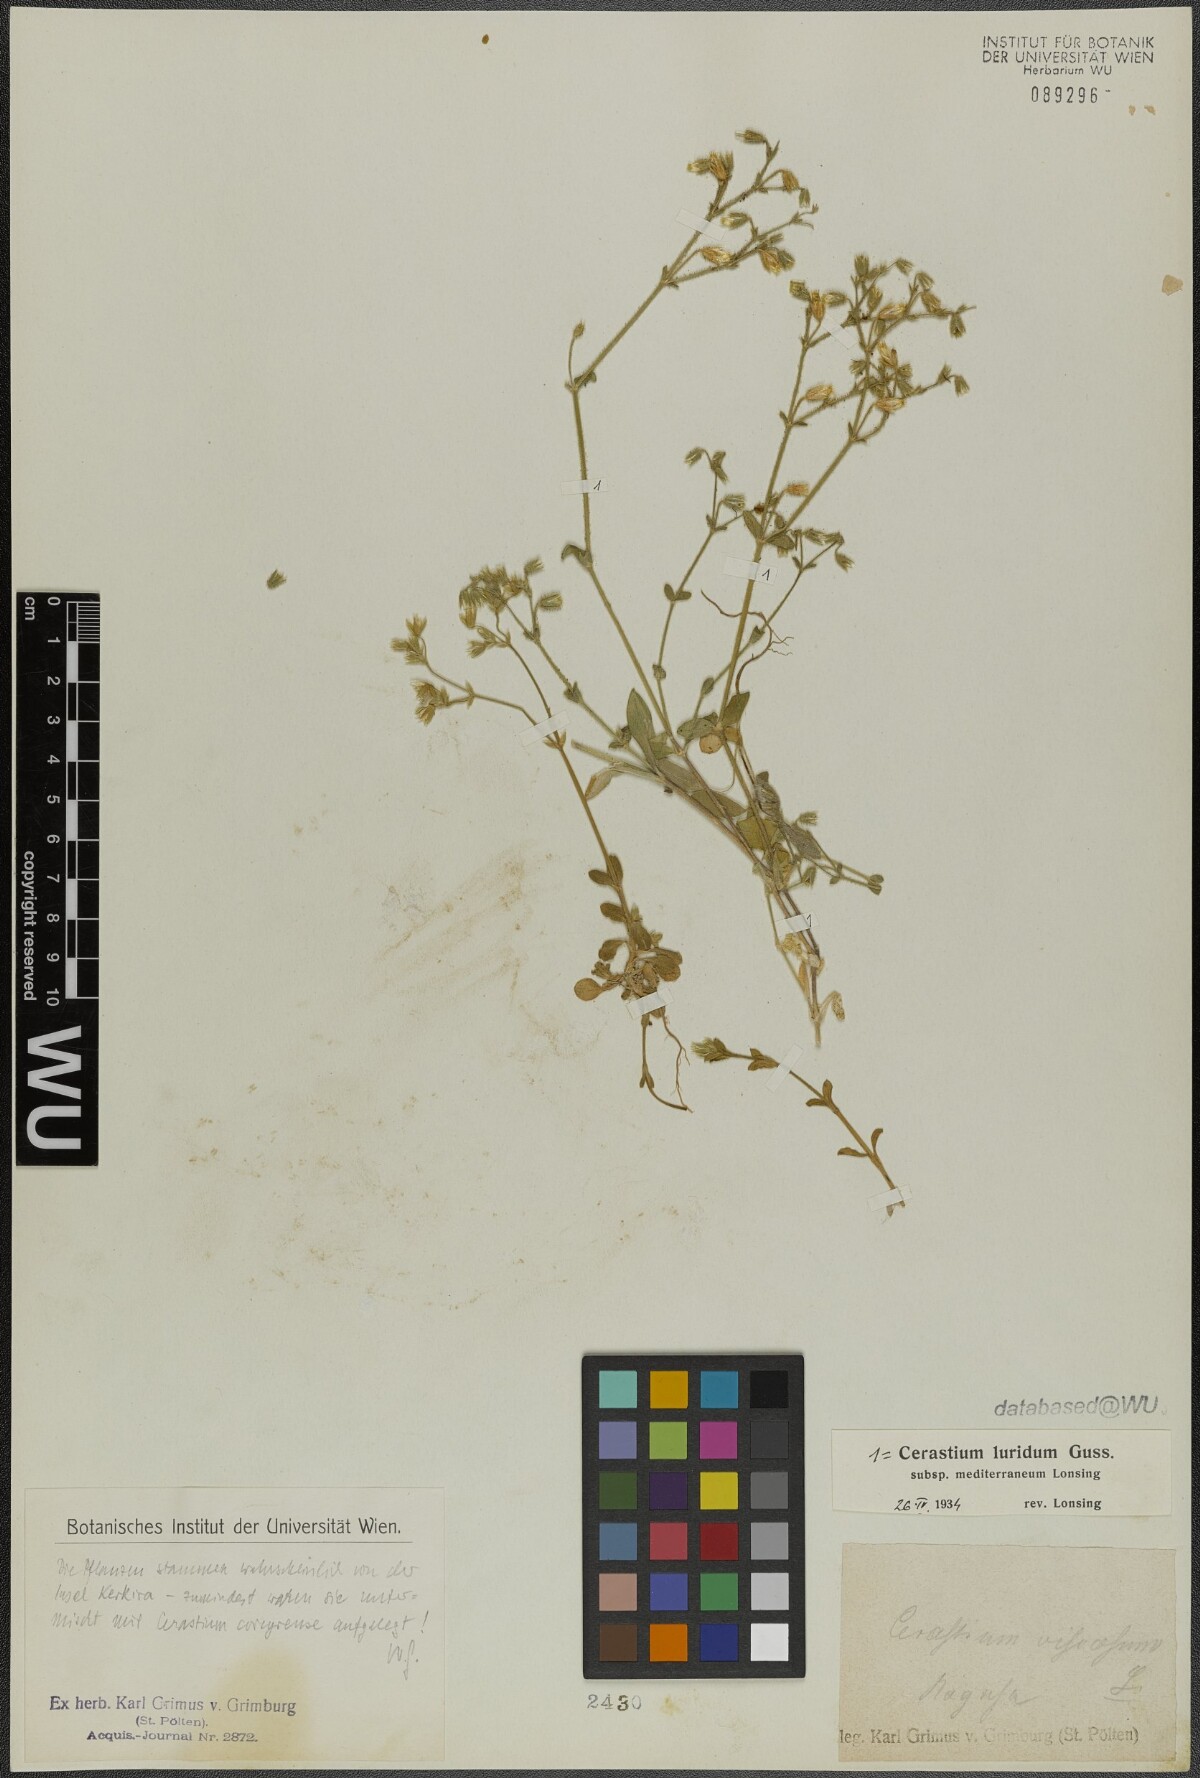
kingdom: Plantae
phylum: Tracheophyta
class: Magnoliopsida
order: Caryophyllales
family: Caryophyllaceae
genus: Cerastium
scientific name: Cerastium brachypetalum
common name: Grey mouse-ear
